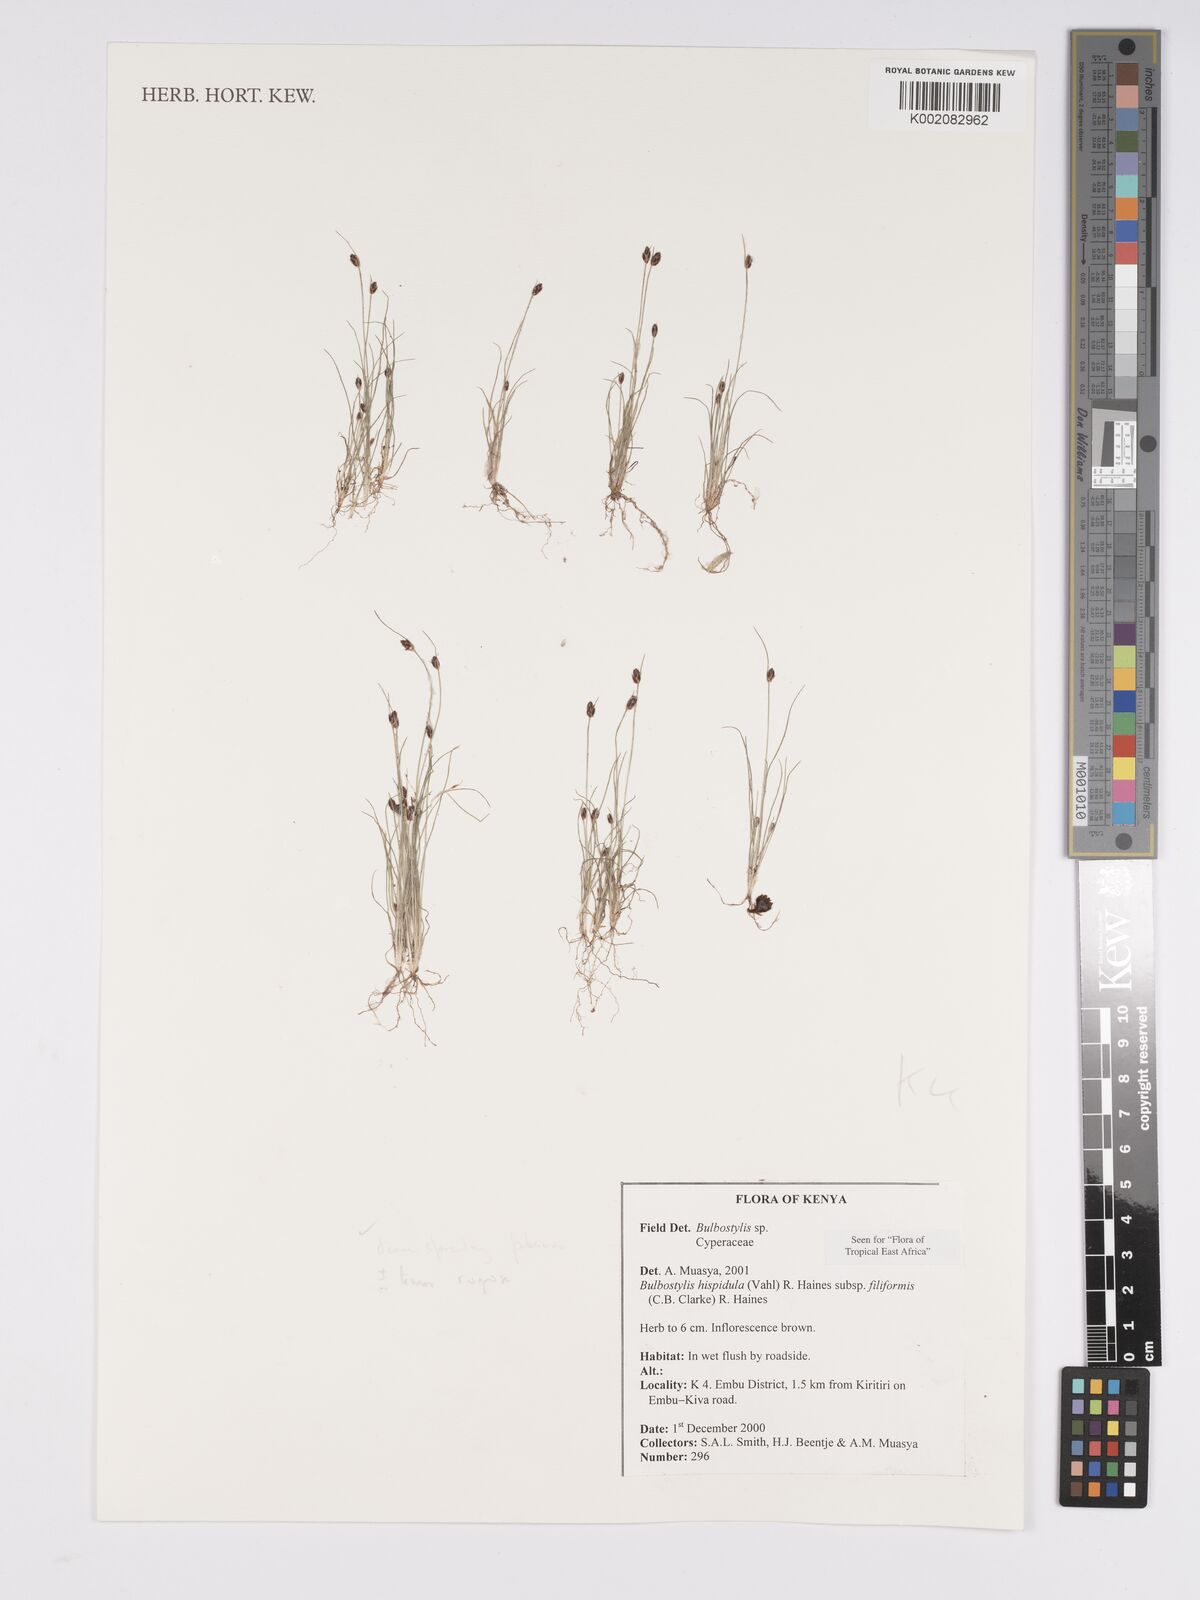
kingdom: Plantae
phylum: Tracheophyta
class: Liliopsida
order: Poales
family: Cyperaceae
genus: Bulbostylis
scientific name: Bulbostylis hispidula
